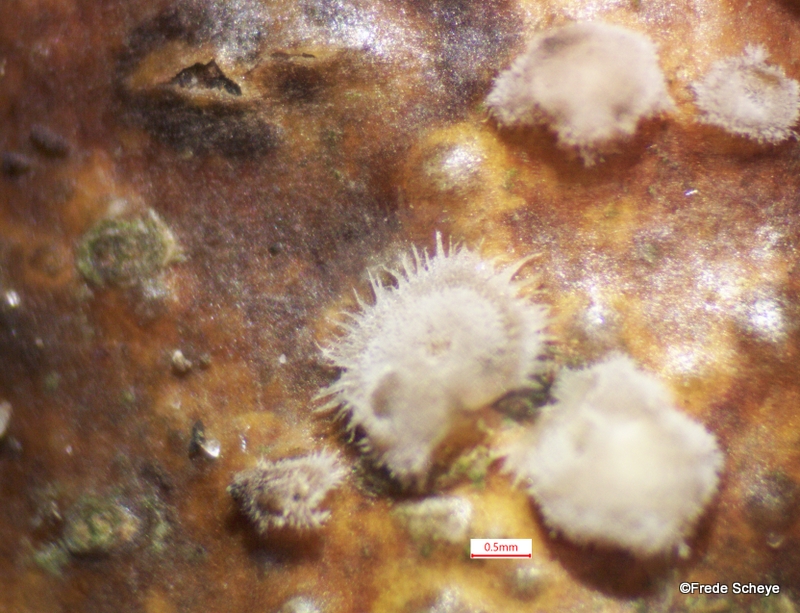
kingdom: Fungi
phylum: Basidiomycota
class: Agaricomycetes
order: Russulales
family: Peniophoraceae
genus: Peniophora
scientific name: Peniophora quercina
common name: ege-voksskind
